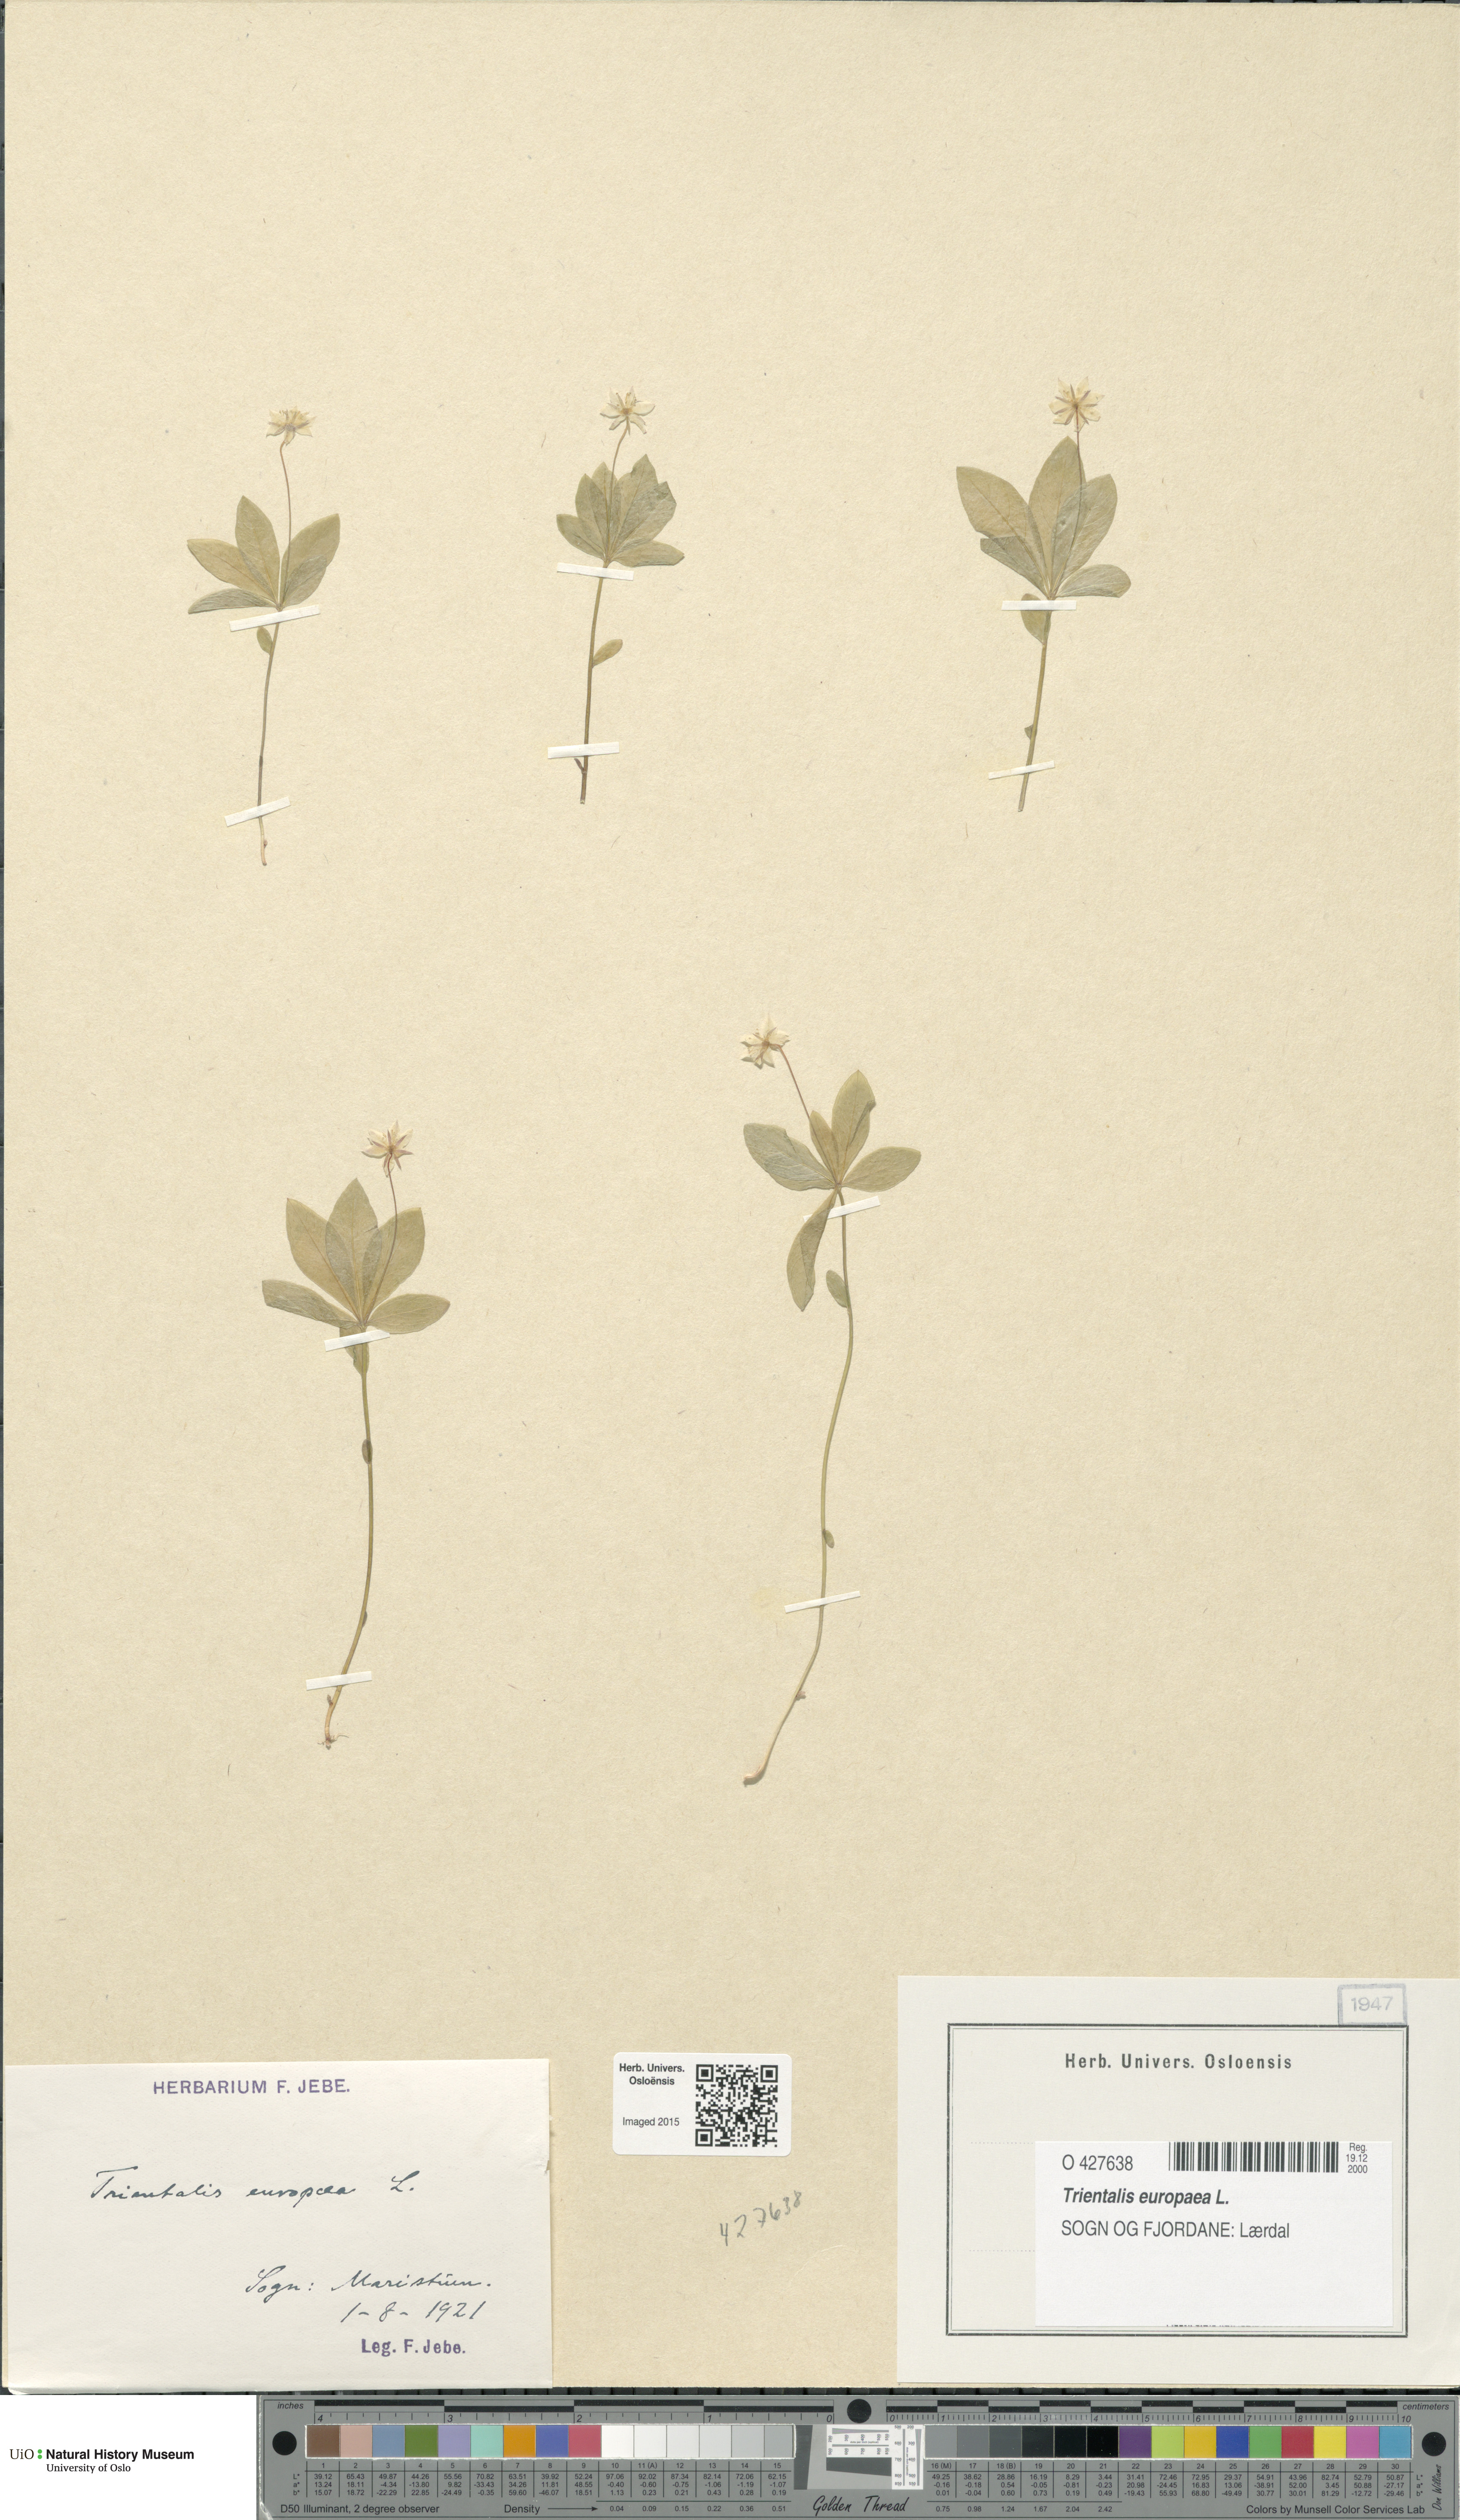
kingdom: Plantae
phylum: Tracheophyta
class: Magnoliopsida
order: Ericales
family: Primulaceae
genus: Lysimachia
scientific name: Lysimachia europaea
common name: Arctic starflower
